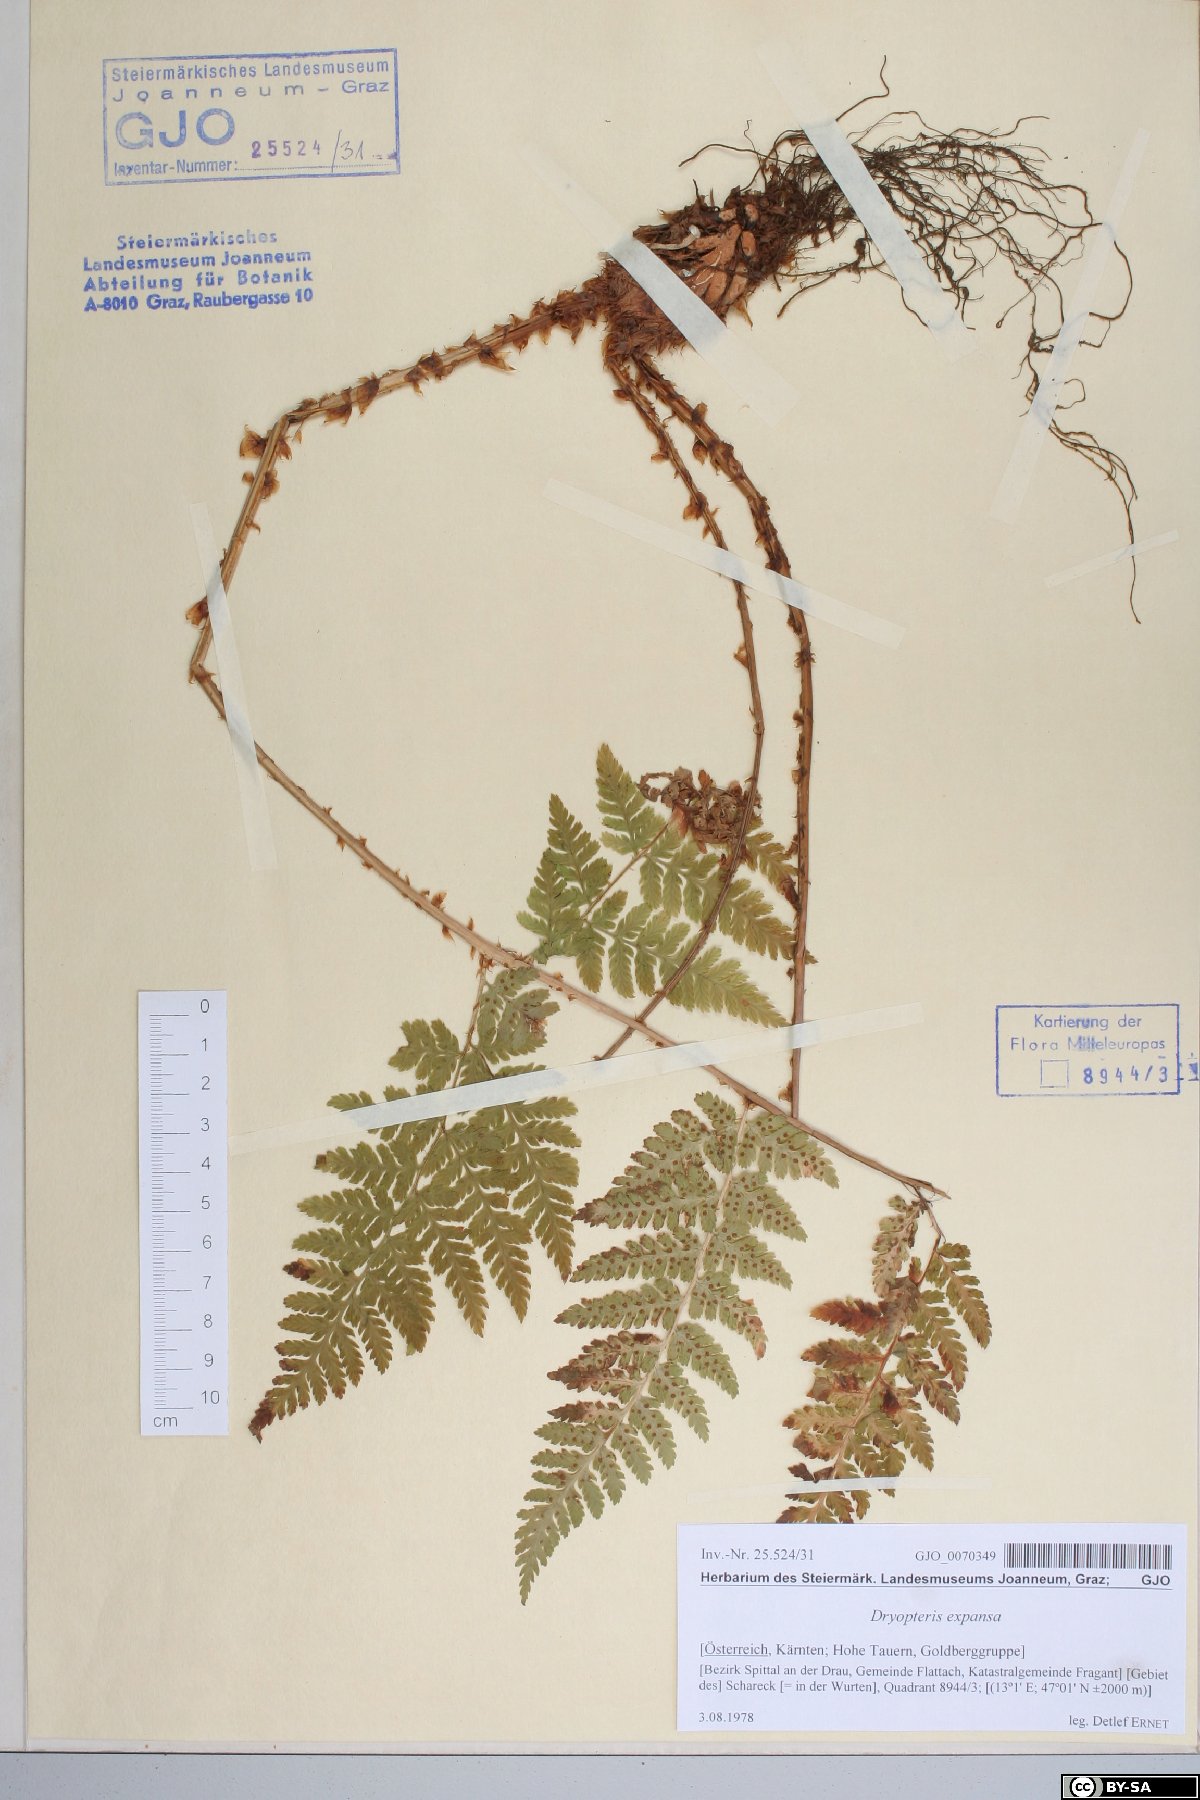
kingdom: Plantae
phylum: Tracheophyta
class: Polypodiopsida
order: Polypodiales
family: Dryopteridaceae
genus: Dryopteris
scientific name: Dryopteris expansa
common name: Northern buckler fern
